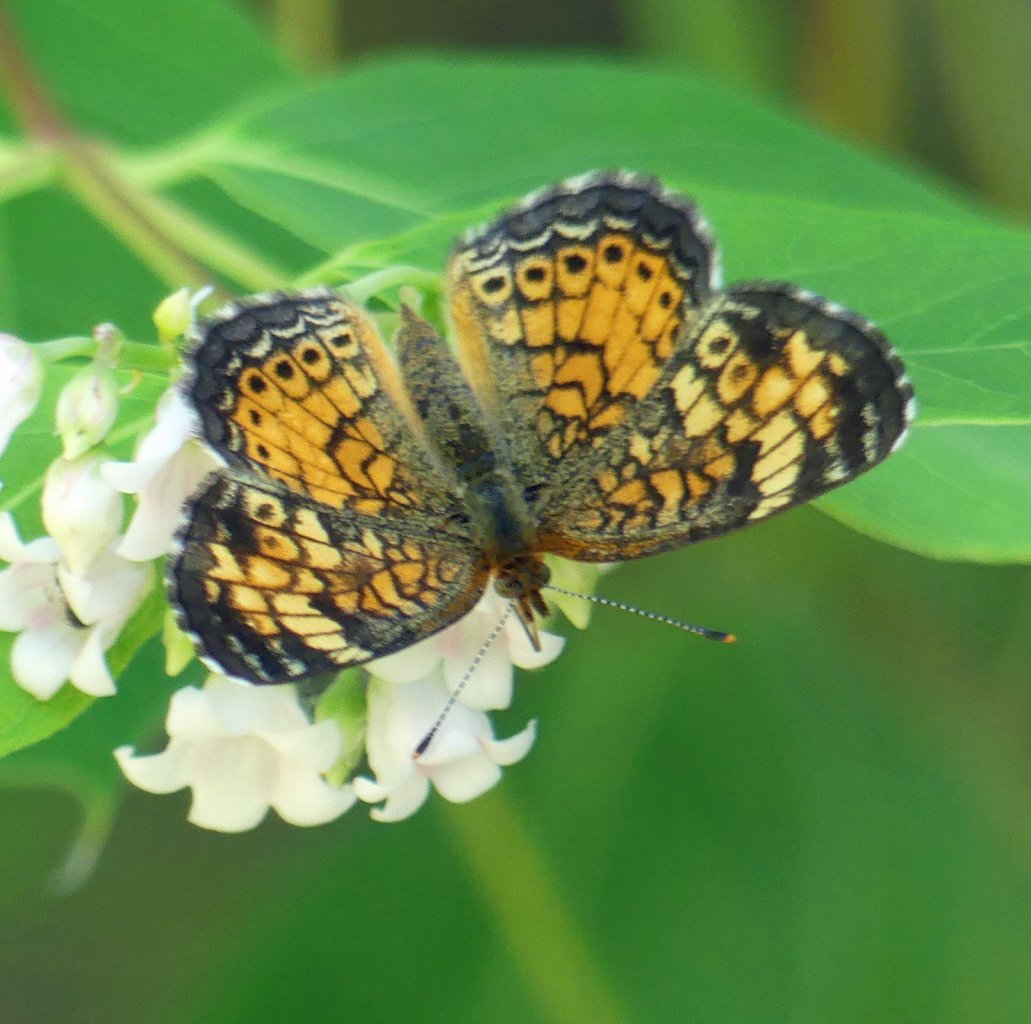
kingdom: Animalia
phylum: Arthropoda
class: Insecta
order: Lepidoptera
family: Nymphalidae
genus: Phyciodes
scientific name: Phyciodes tharos
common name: Pearl Crescent
